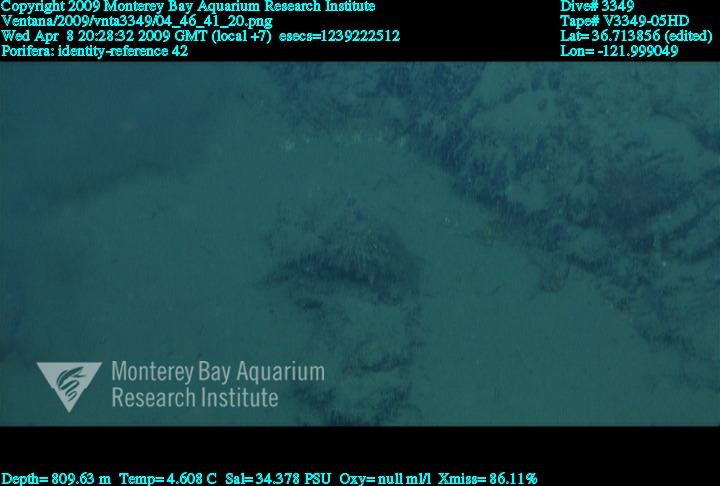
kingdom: Animalia
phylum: Porifera
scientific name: Porifera
